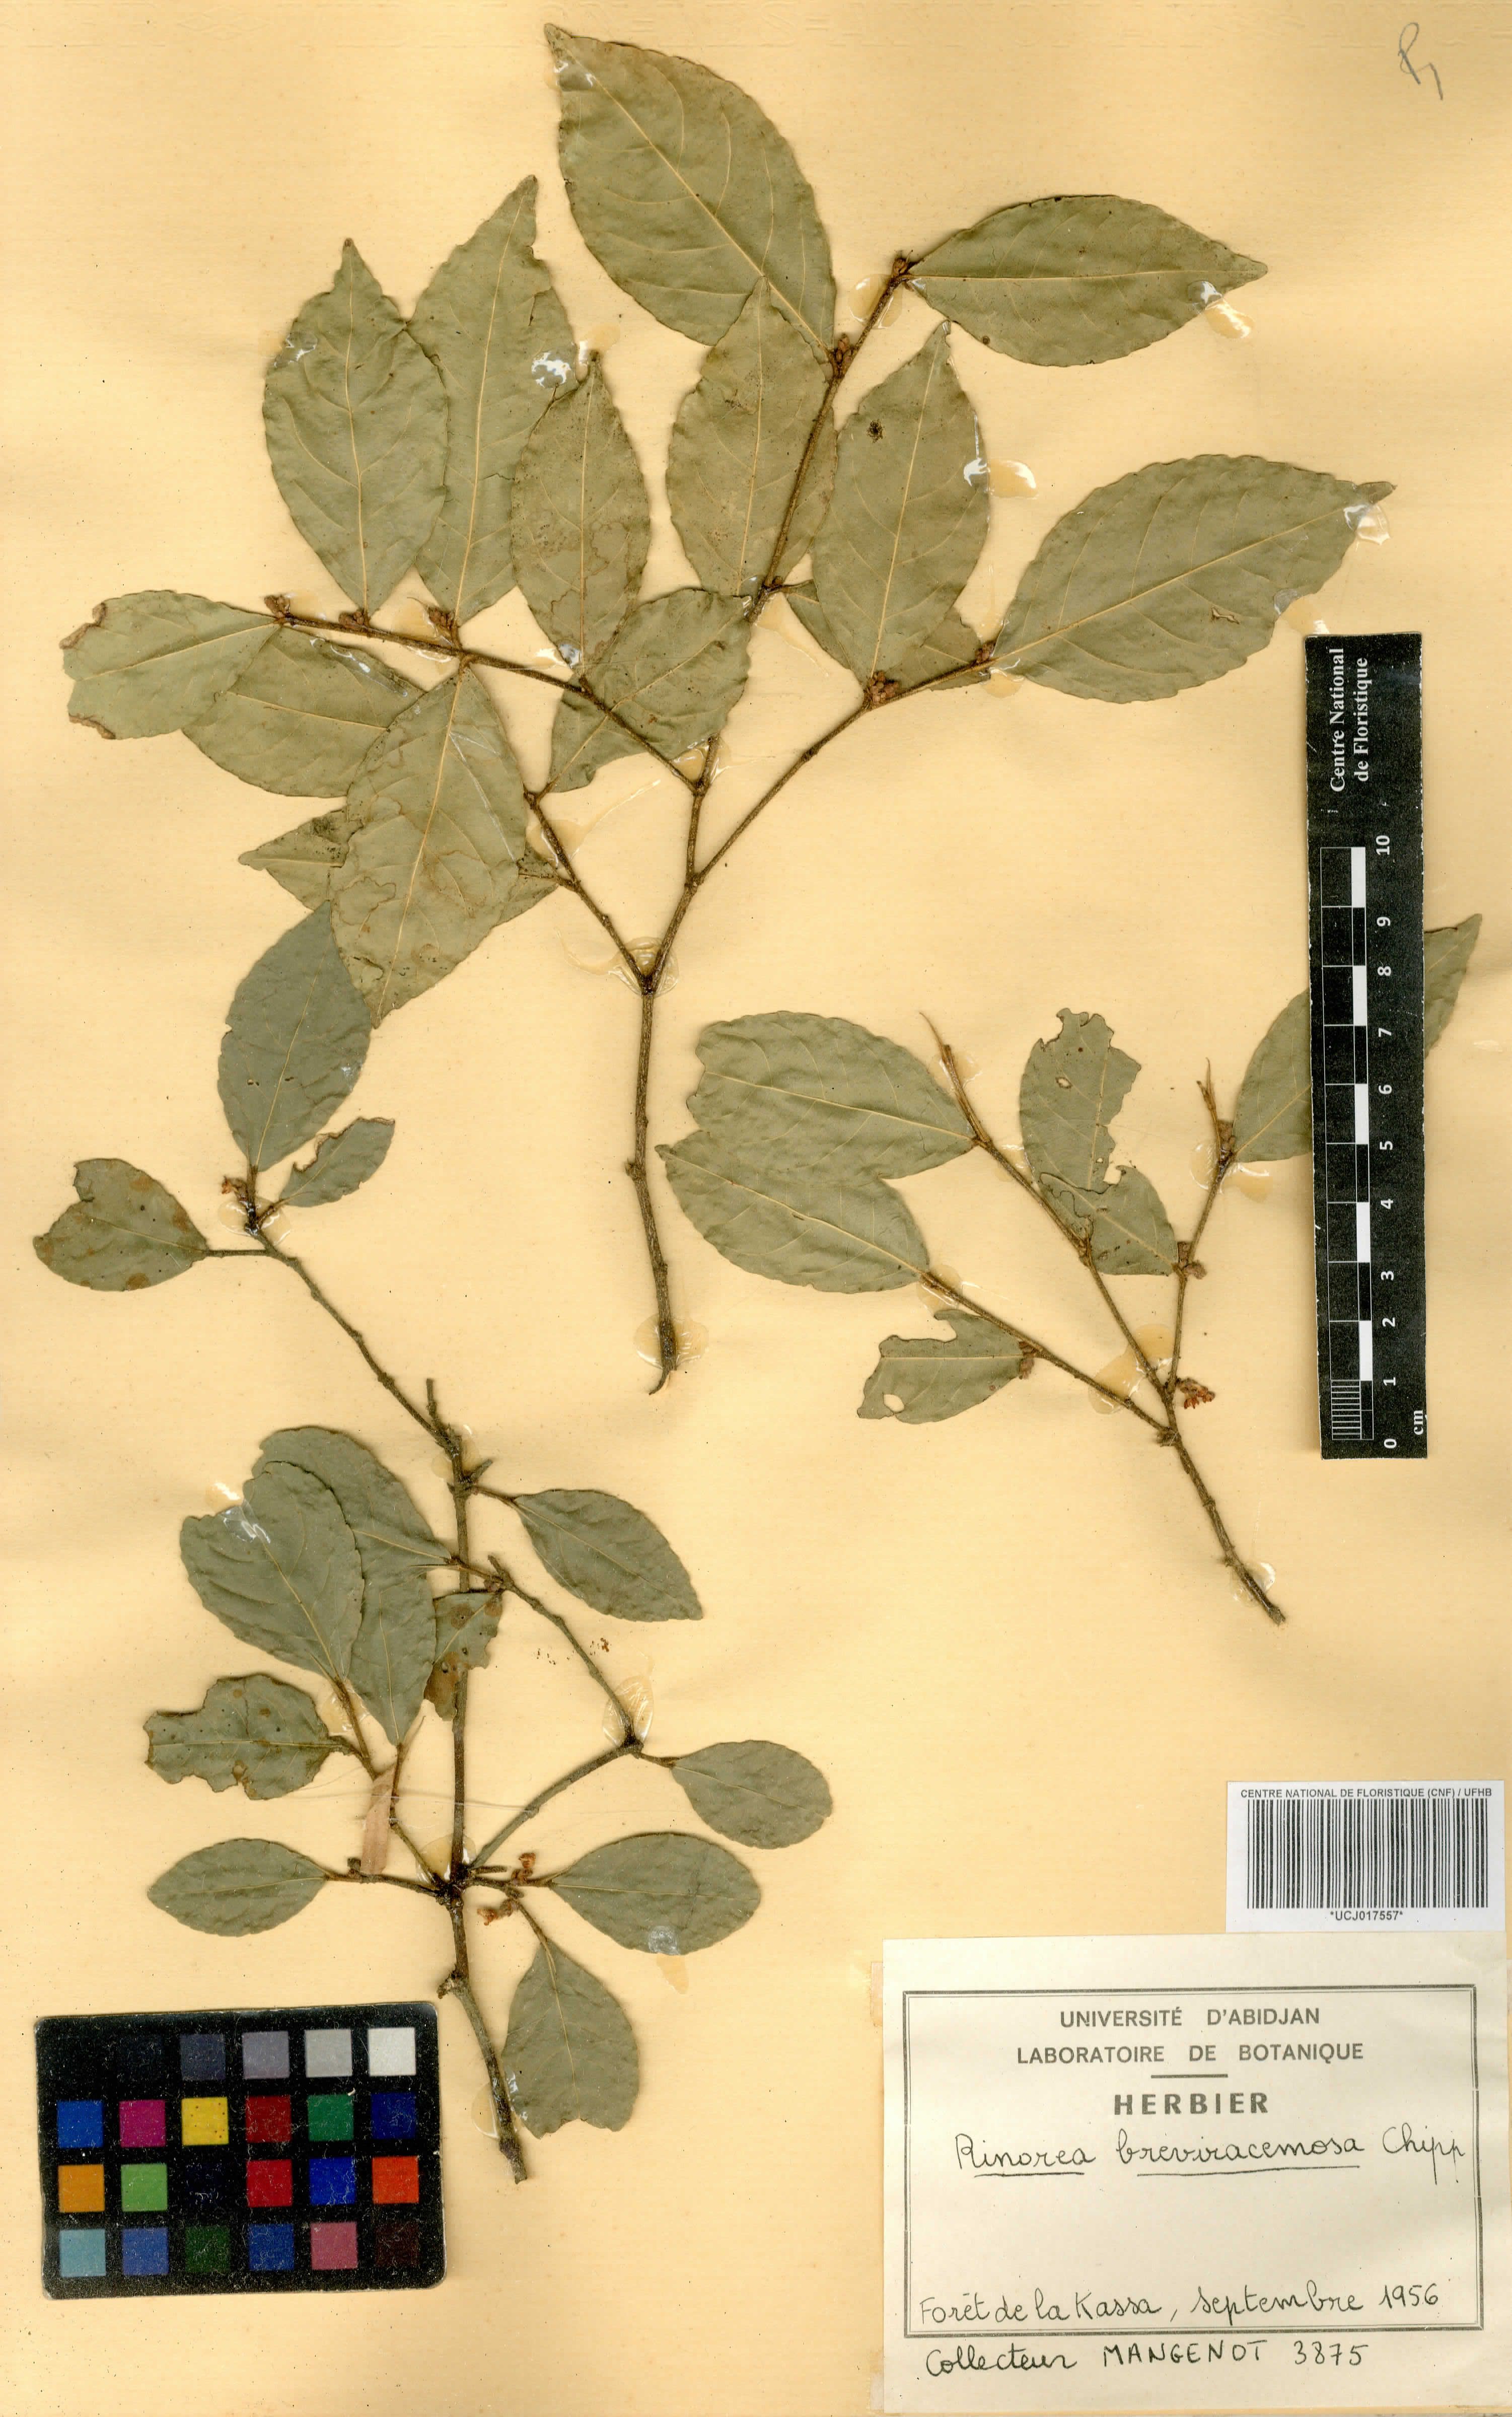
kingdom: Plantae
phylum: Tracheophyta
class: Magnoliopsida
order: Malpighiales
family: Violaceae
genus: Rinorea
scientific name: Rinorea breviracemosa
